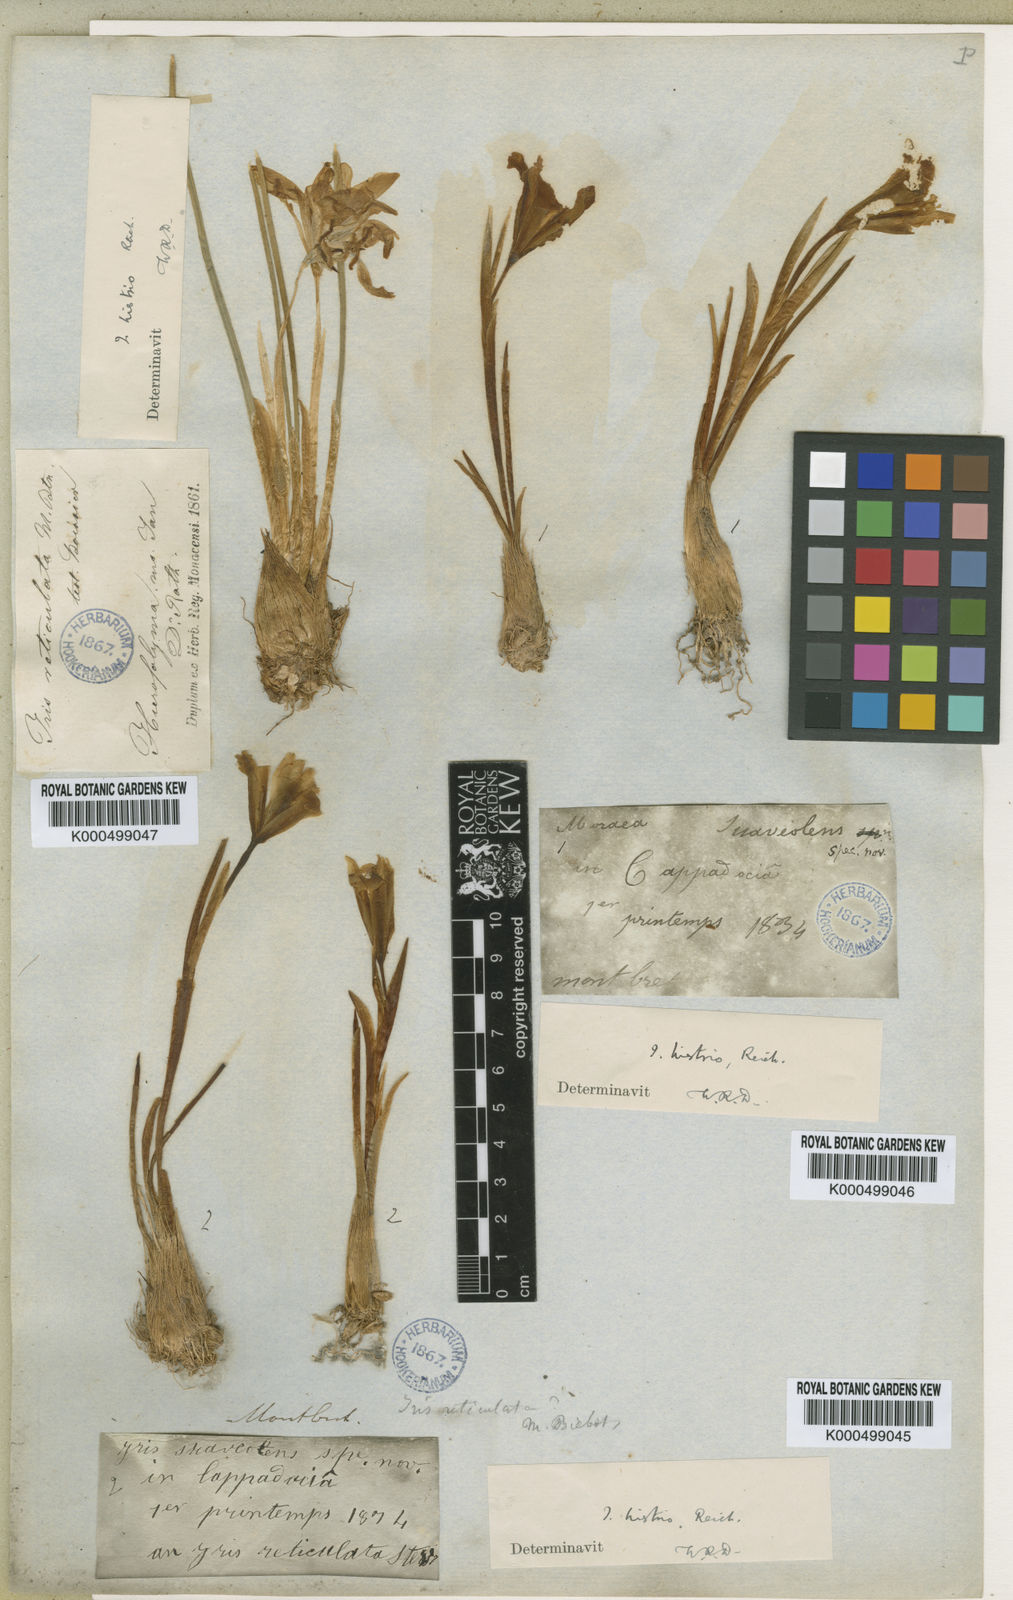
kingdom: Plantae
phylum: Tracheophyta
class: Liliopsida
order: Asparagales
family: Iridaceae
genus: Iris
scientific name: Iris danfordiae
